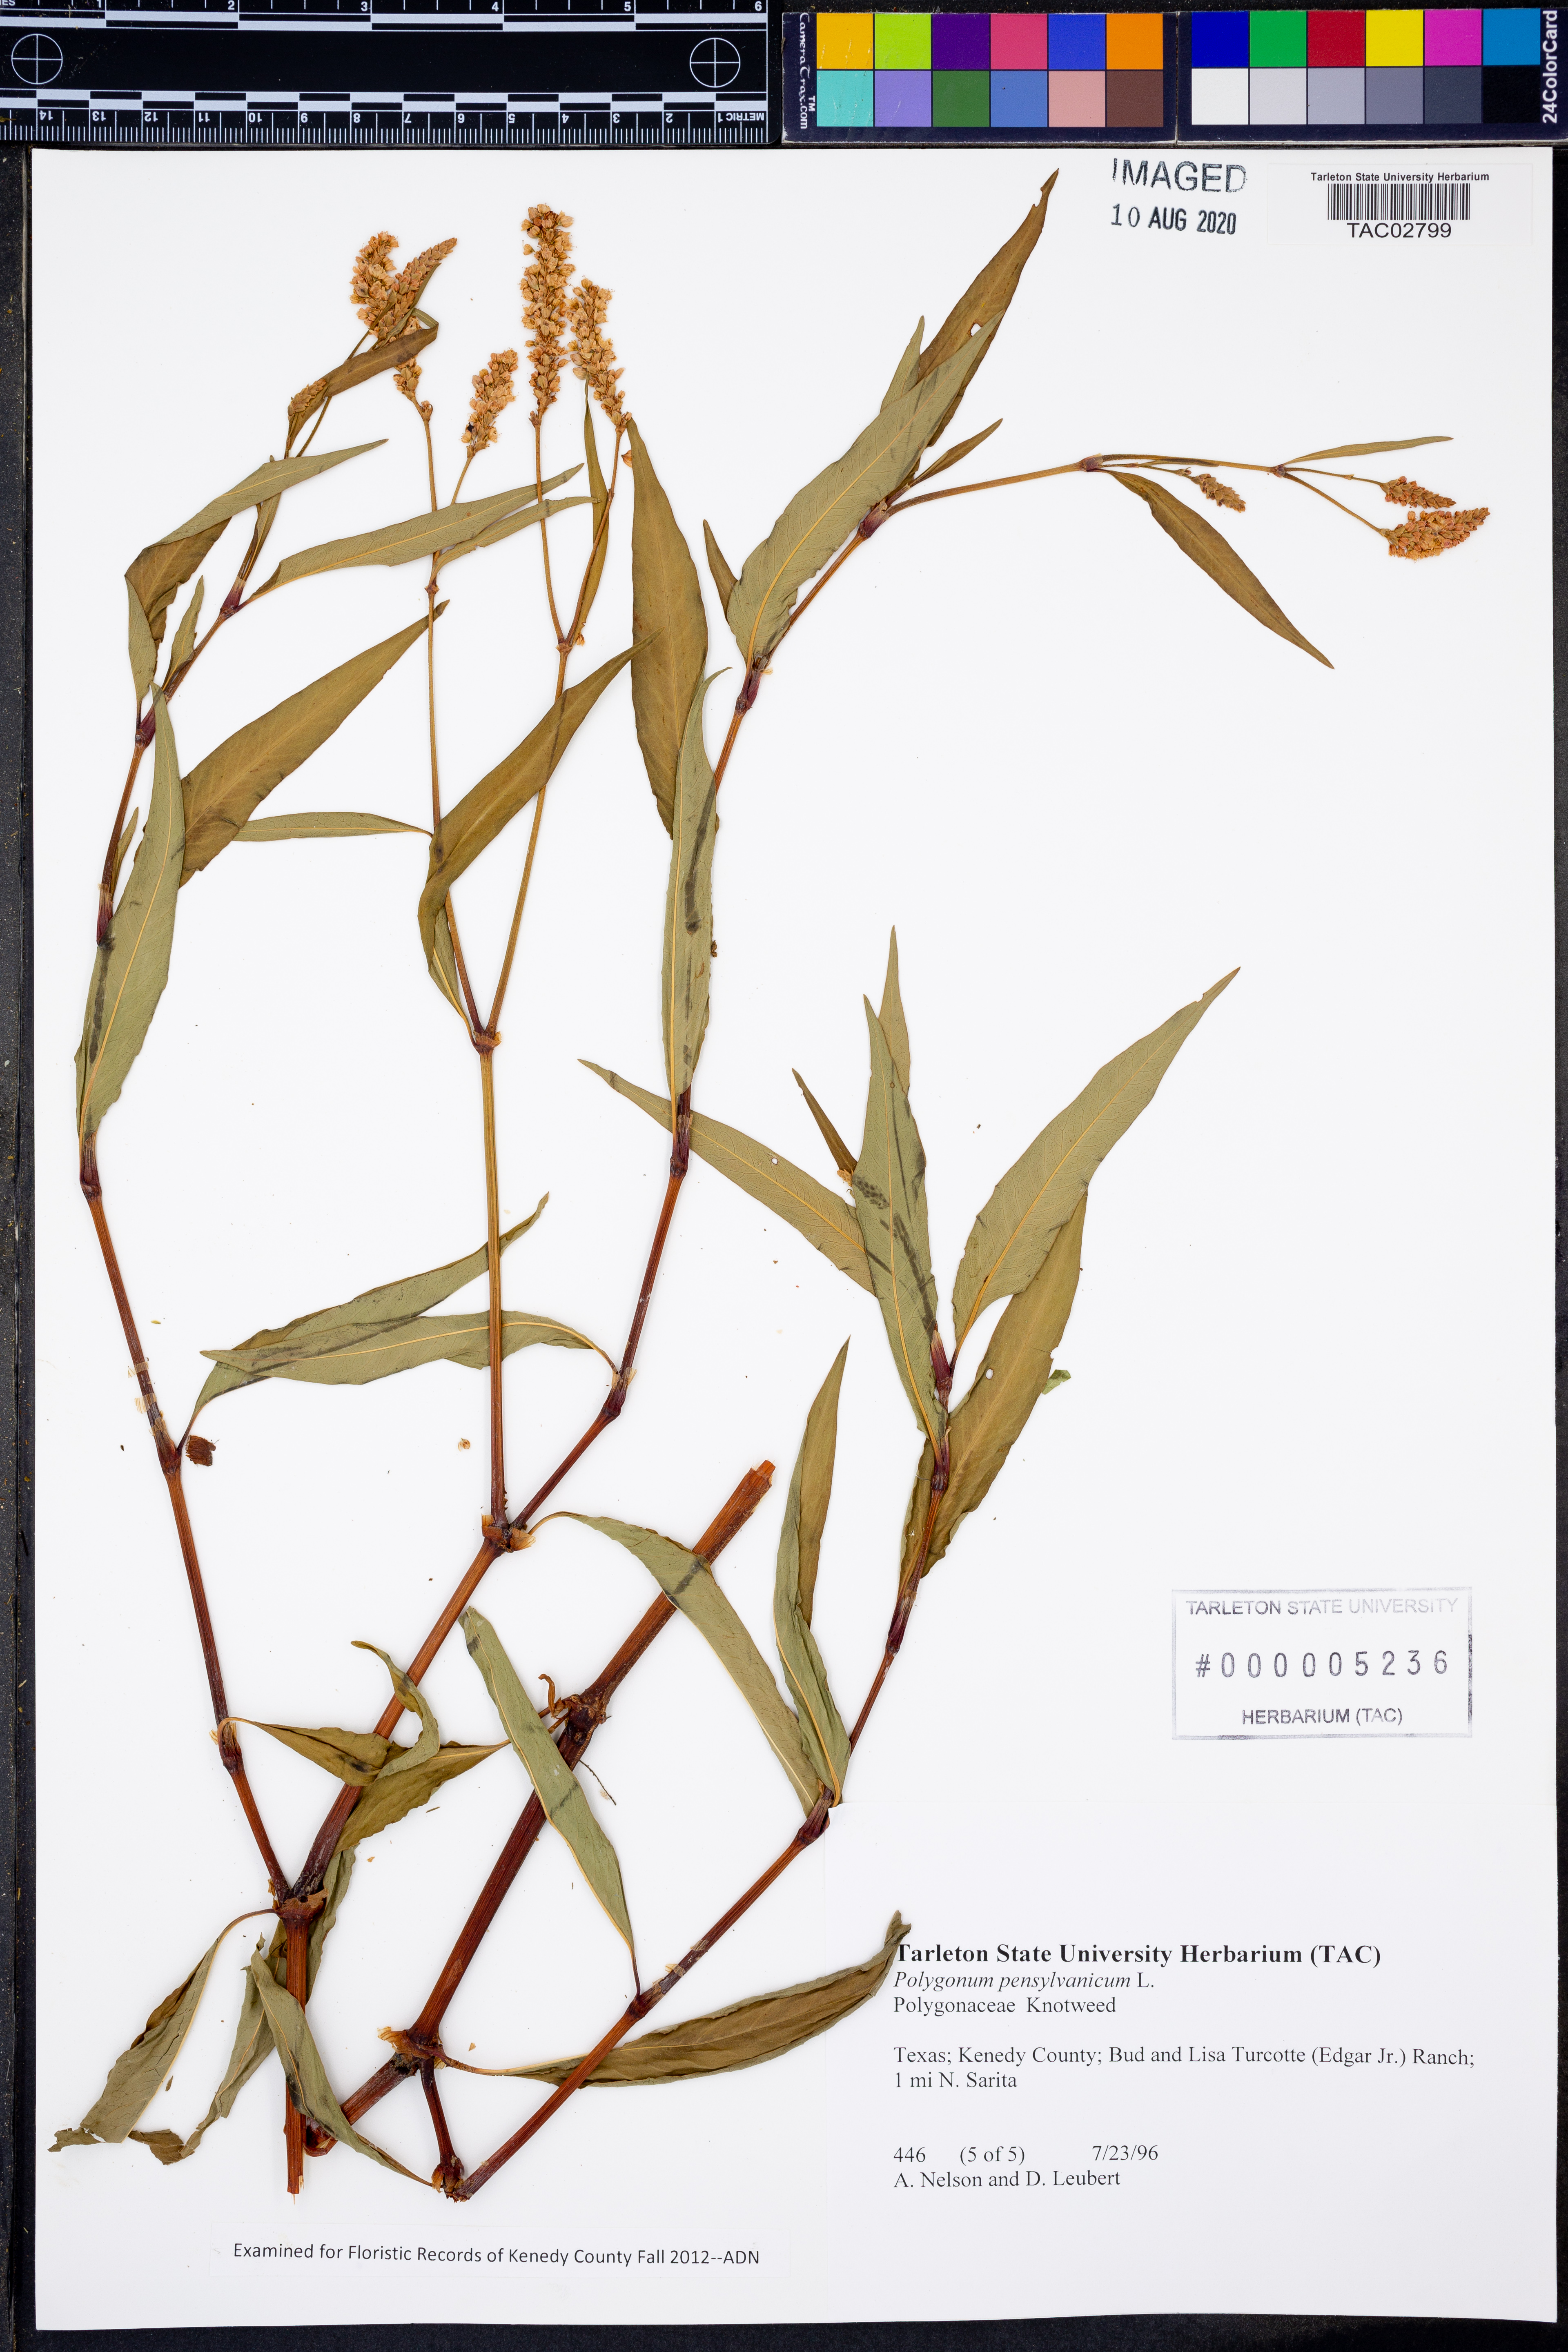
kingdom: Plantae
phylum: Tracheophyta
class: Magnoliopsida
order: Caryophyllales
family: Polygonaceae
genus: Persicaria
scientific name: Persicaria pensylvanica
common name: Pinkweed
